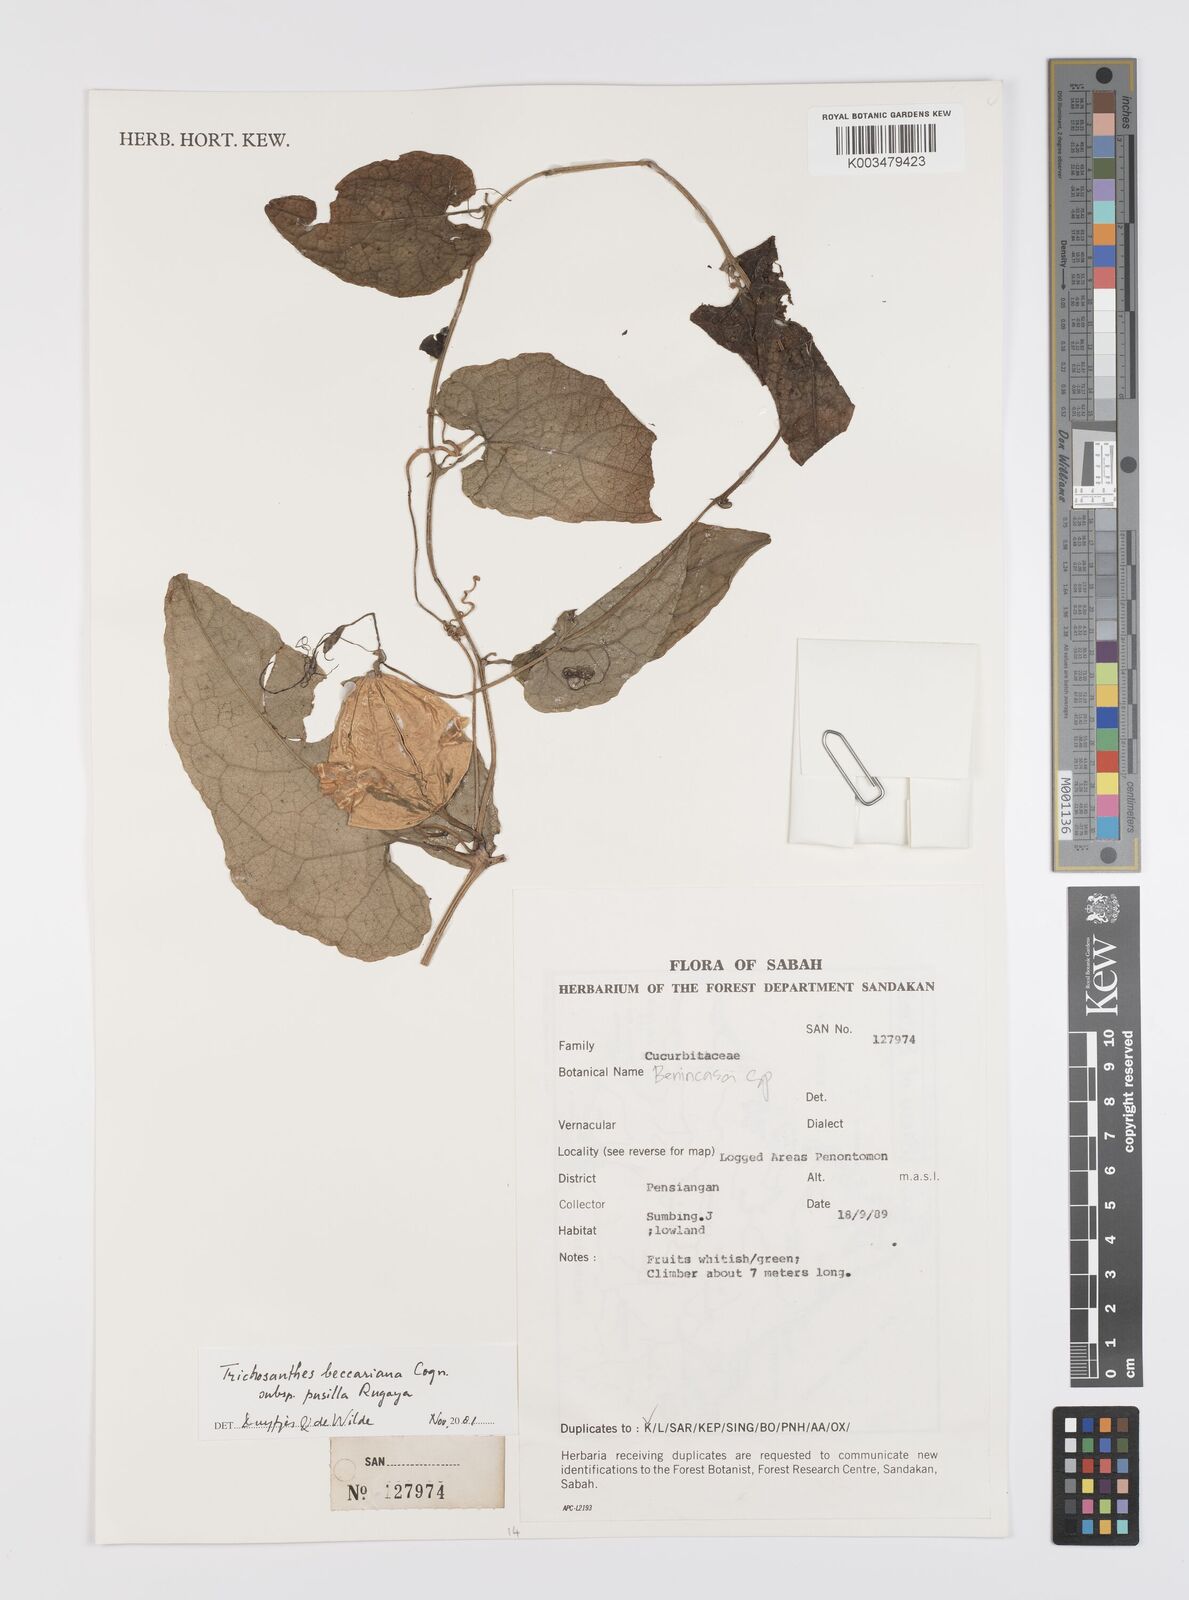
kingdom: Plantae
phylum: Tracheophyta
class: Magnoliopsida
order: Cucurbitales
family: Cucurbitaceae
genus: Trichosanthes
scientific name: Trichosanthes beccariana
